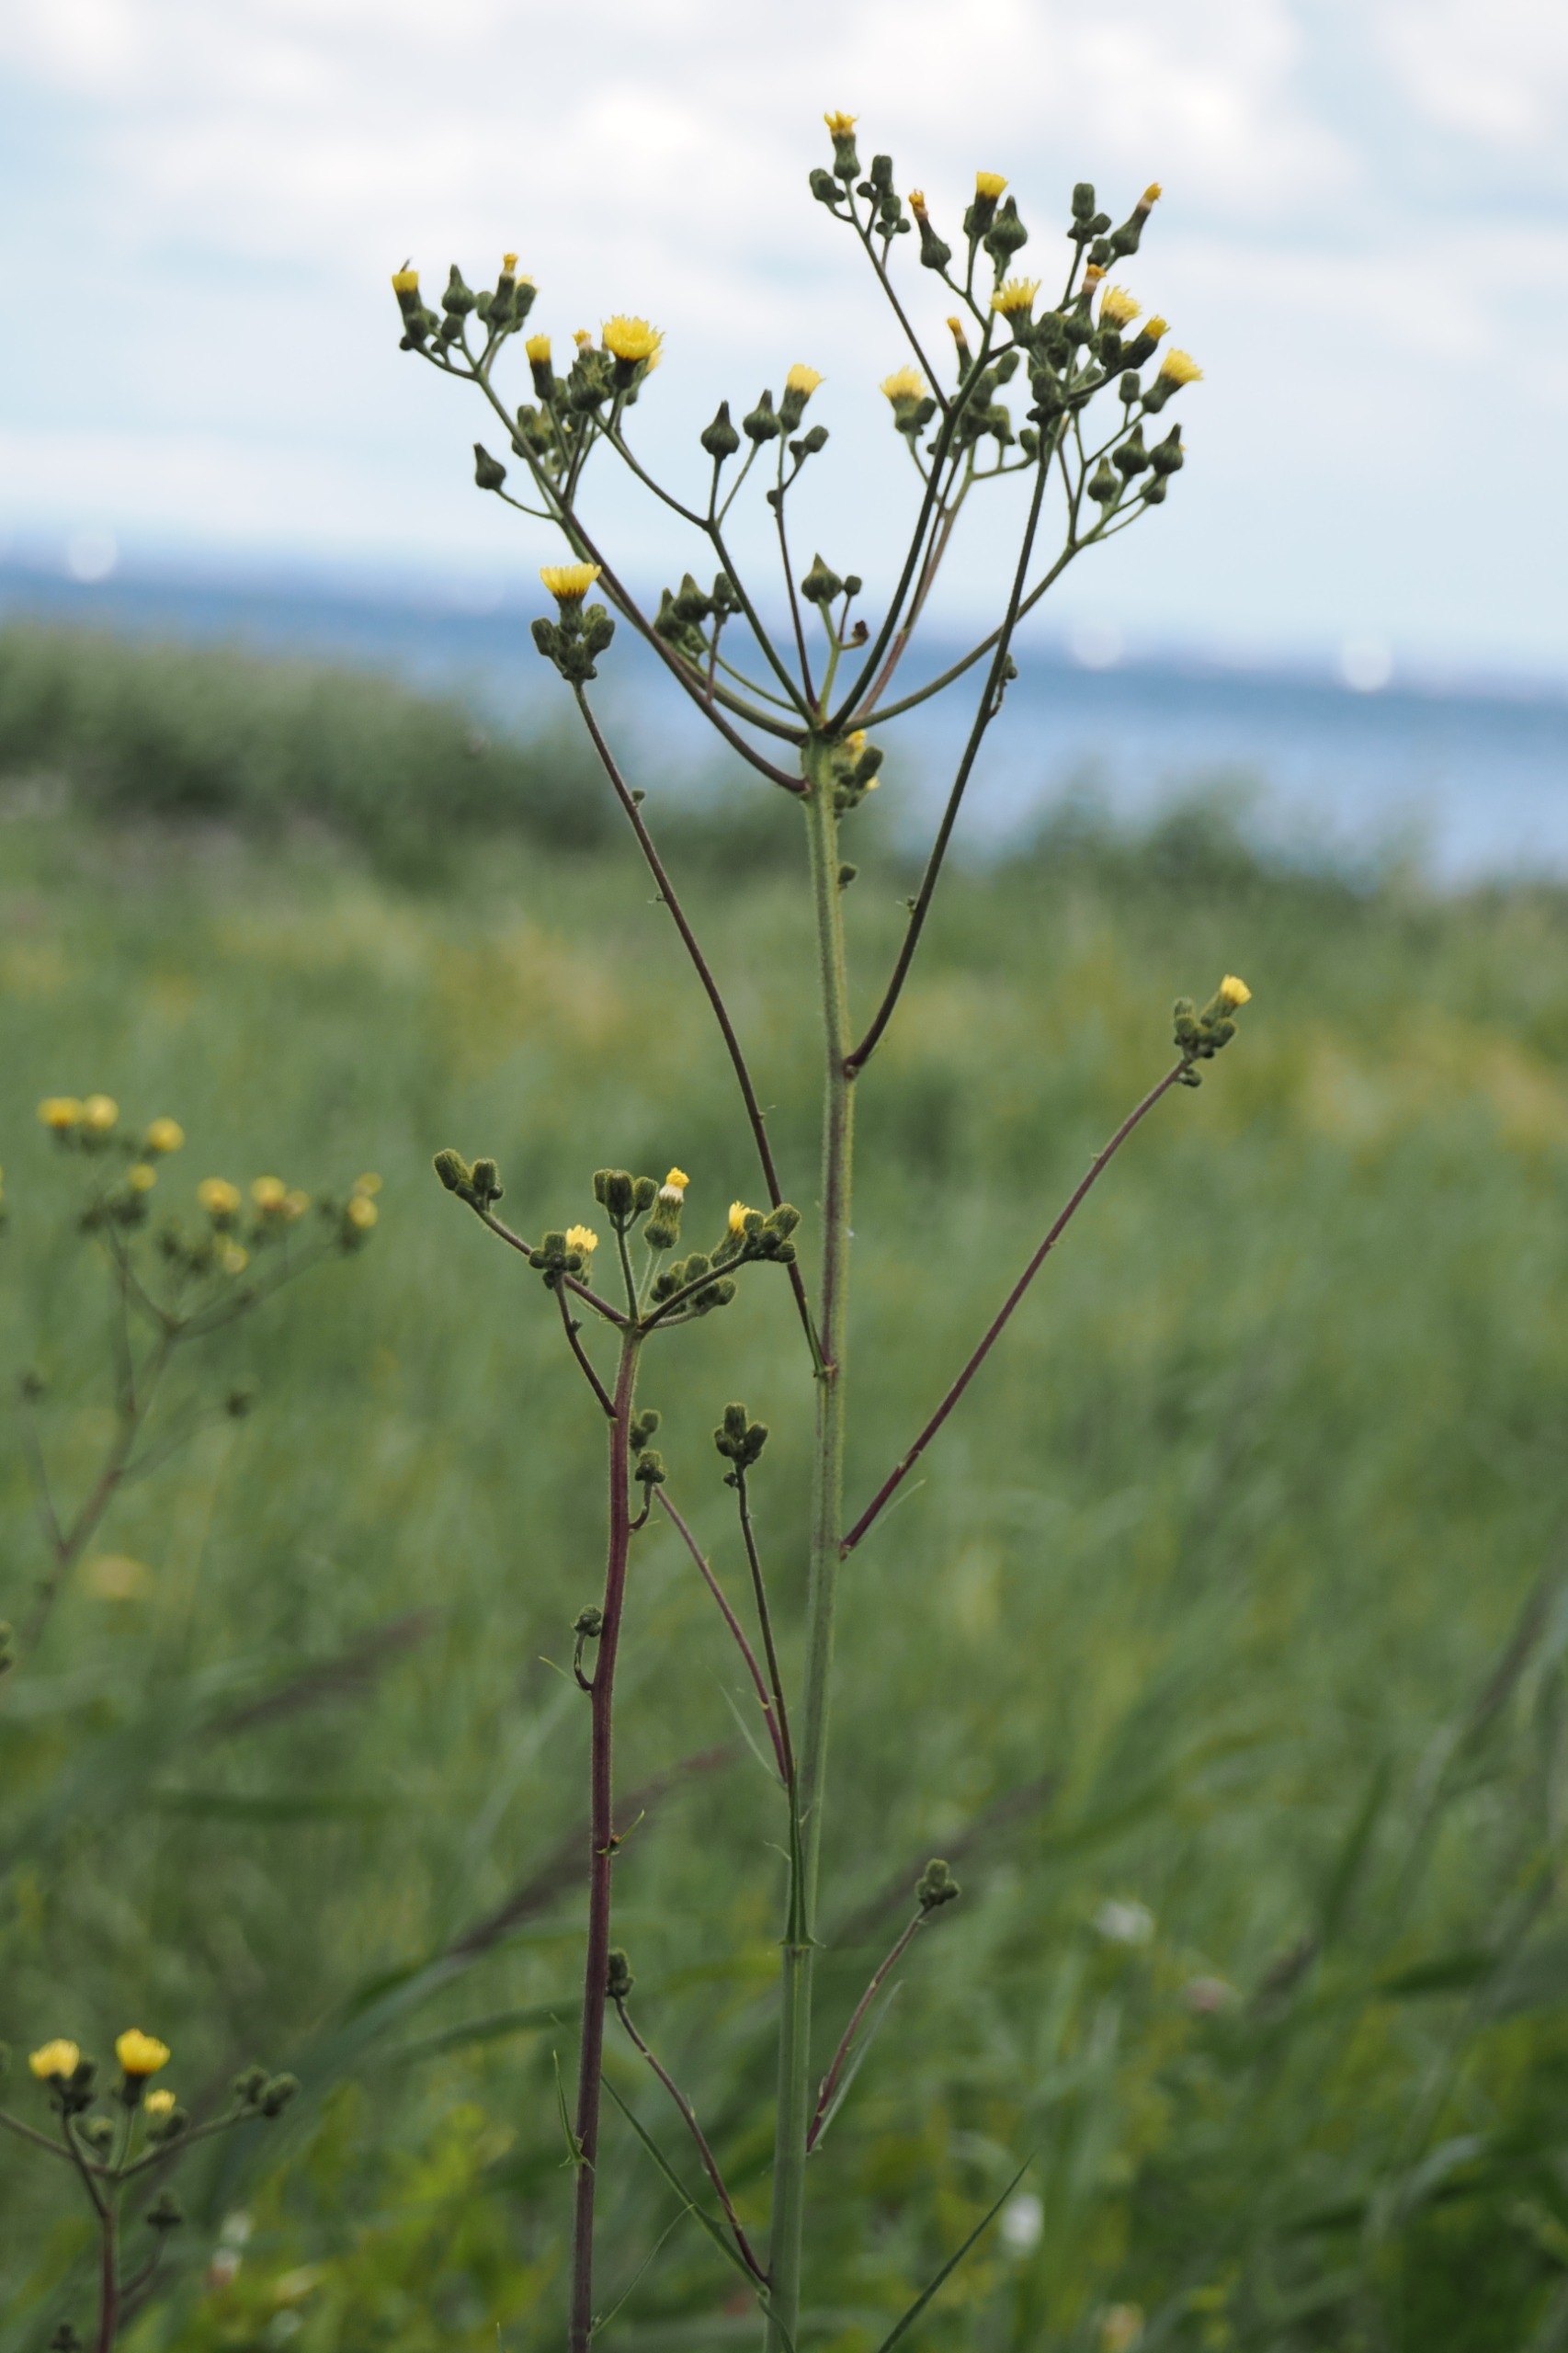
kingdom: Plantae
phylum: Tracheophyta
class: Magnoliopsida
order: Asterales
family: Asteraceae
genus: Sonchus
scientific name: Sonchus palustris
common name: Kær-svinemælk
